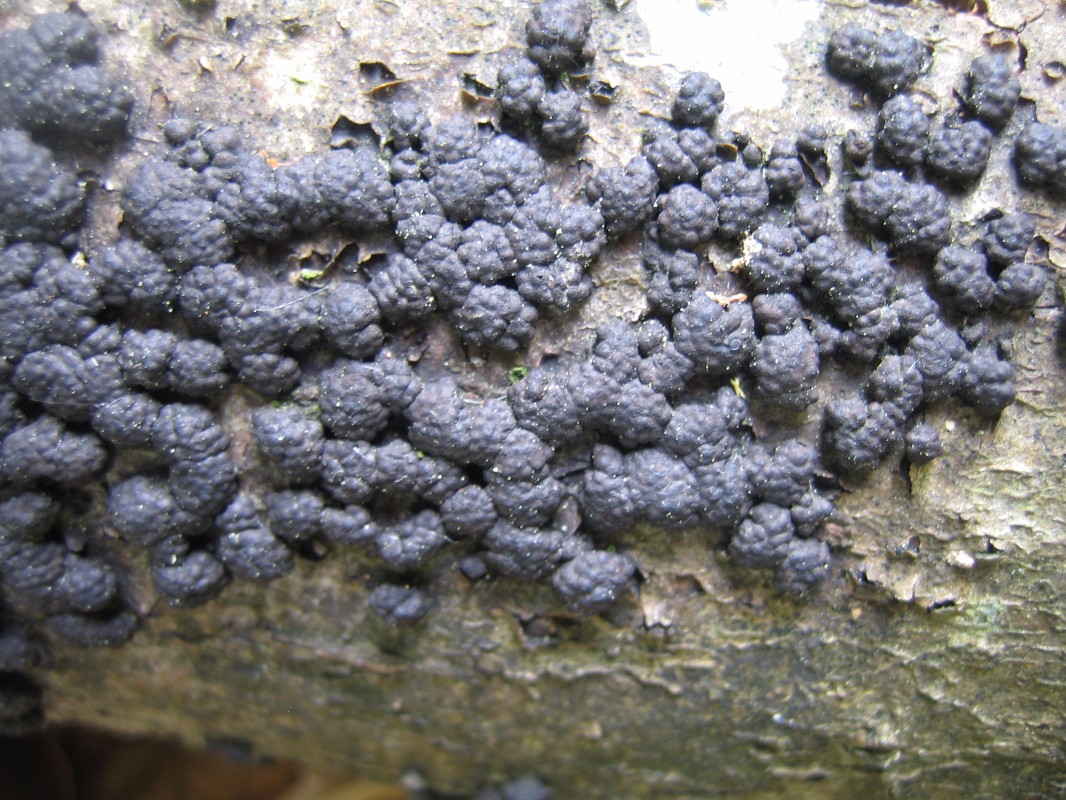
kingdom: Fungi
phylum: Ascomycota
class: Sordariomycetes
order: Xylariales
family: Hypoxylaceae
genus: Jackrogersella
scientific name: Jackrogersella cohaerens
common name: sammenflydende kulbær
